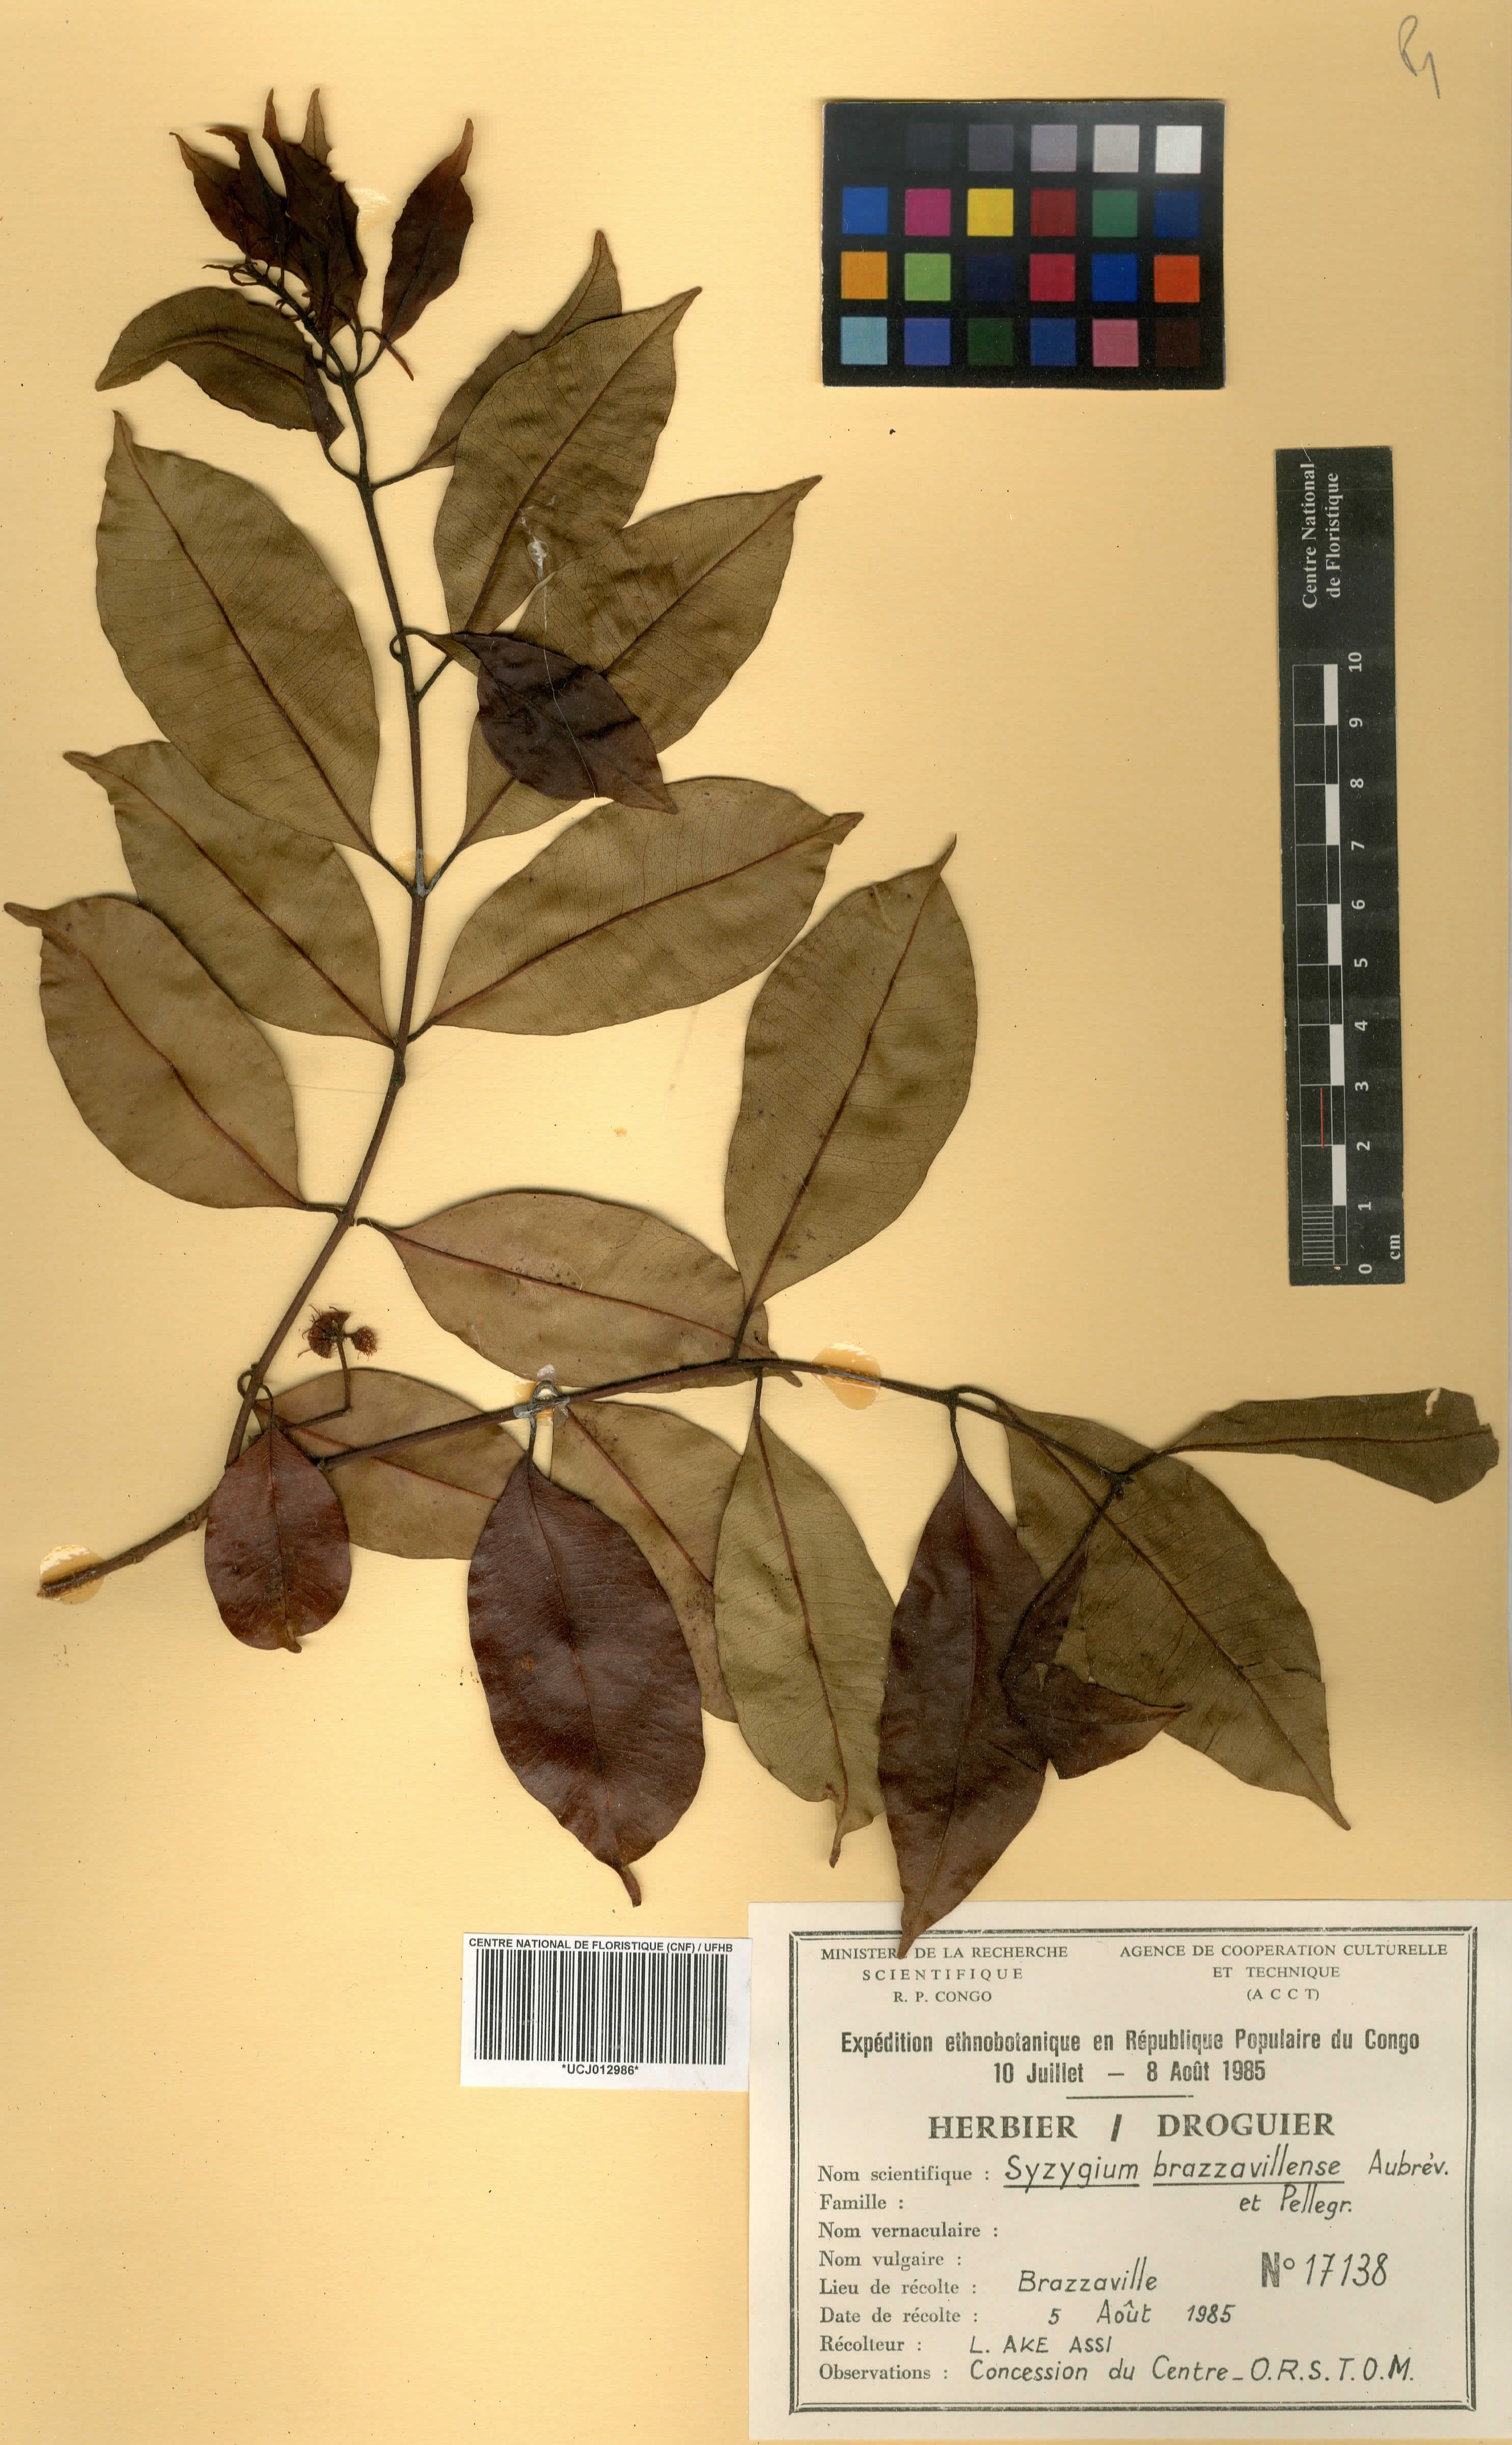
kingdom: Plantae
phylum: Tracheophyta
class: Magnoliopsida
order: Myrtales
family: Myrtaceae
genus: Syzygium
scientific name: Syzygium guineense
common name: Water-pear
